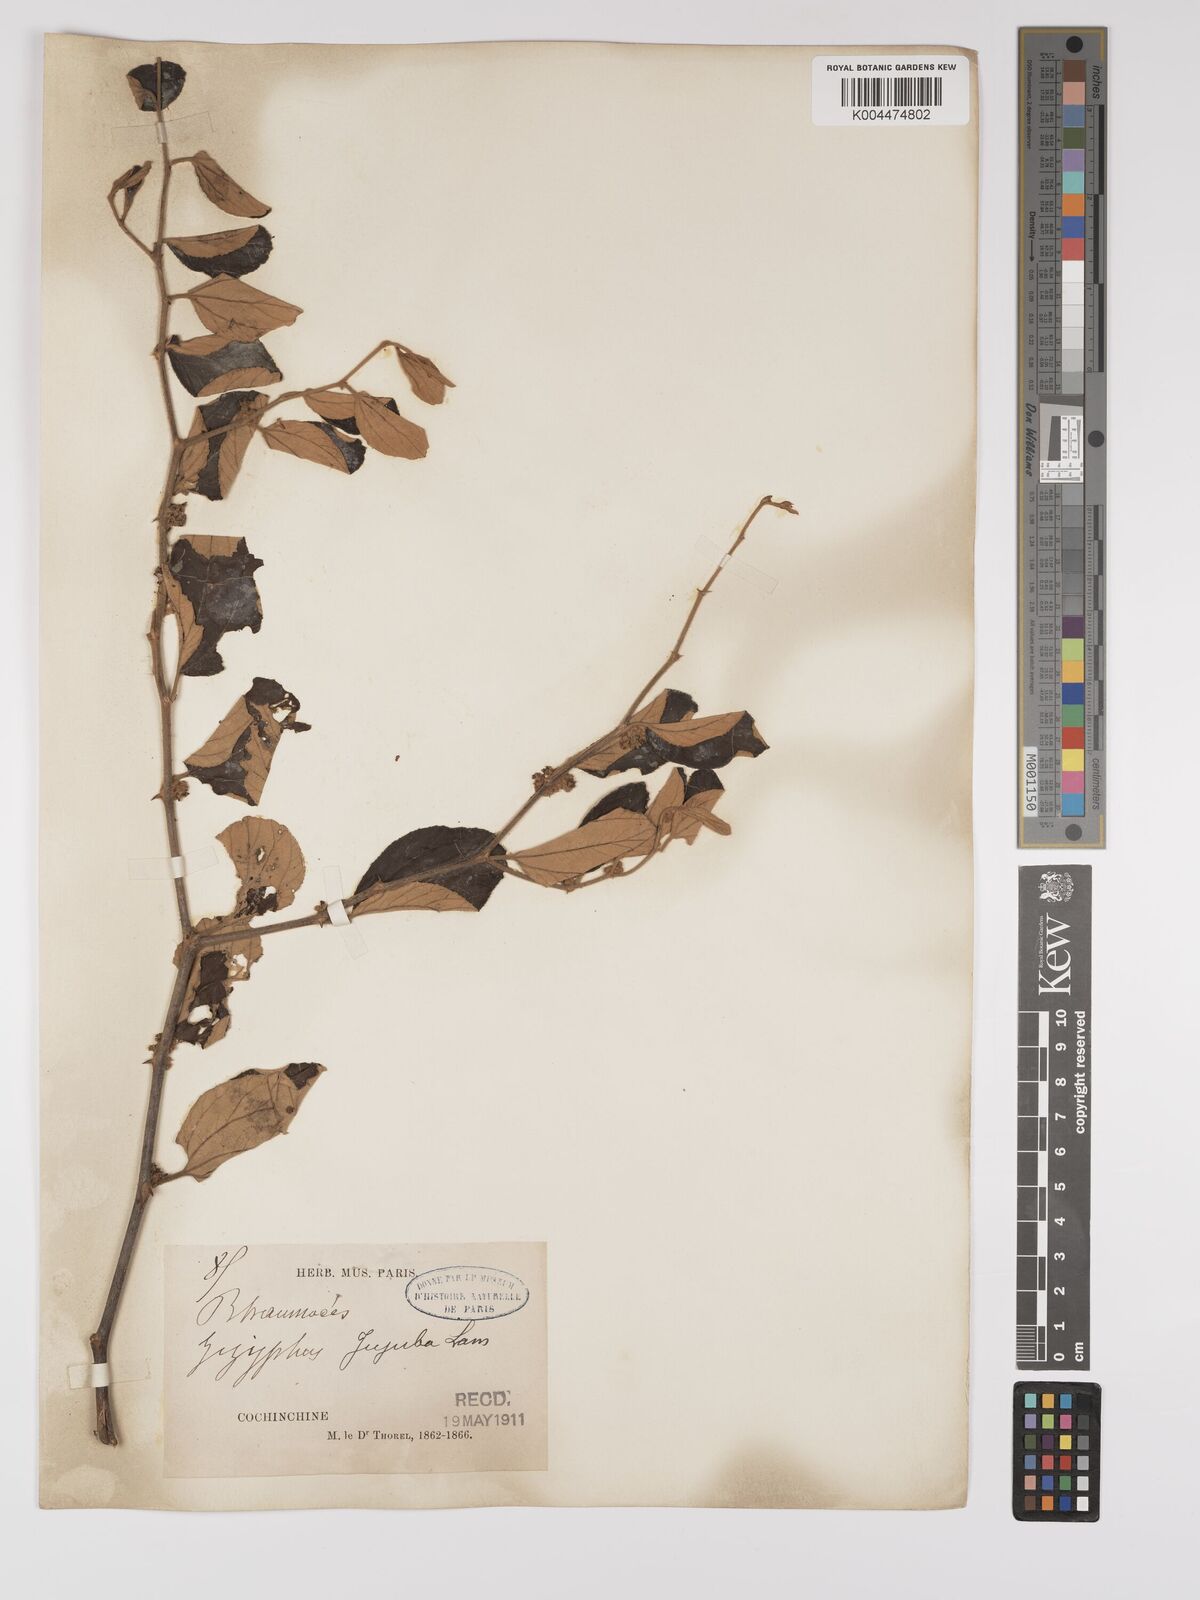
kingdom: Plantae
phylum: Tracheophyta
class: Magnoliopsida
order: Rosales
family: Rhamnaceae
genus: Ziziphus
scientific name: Ziziphus mauritiana
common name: Indian jujube
